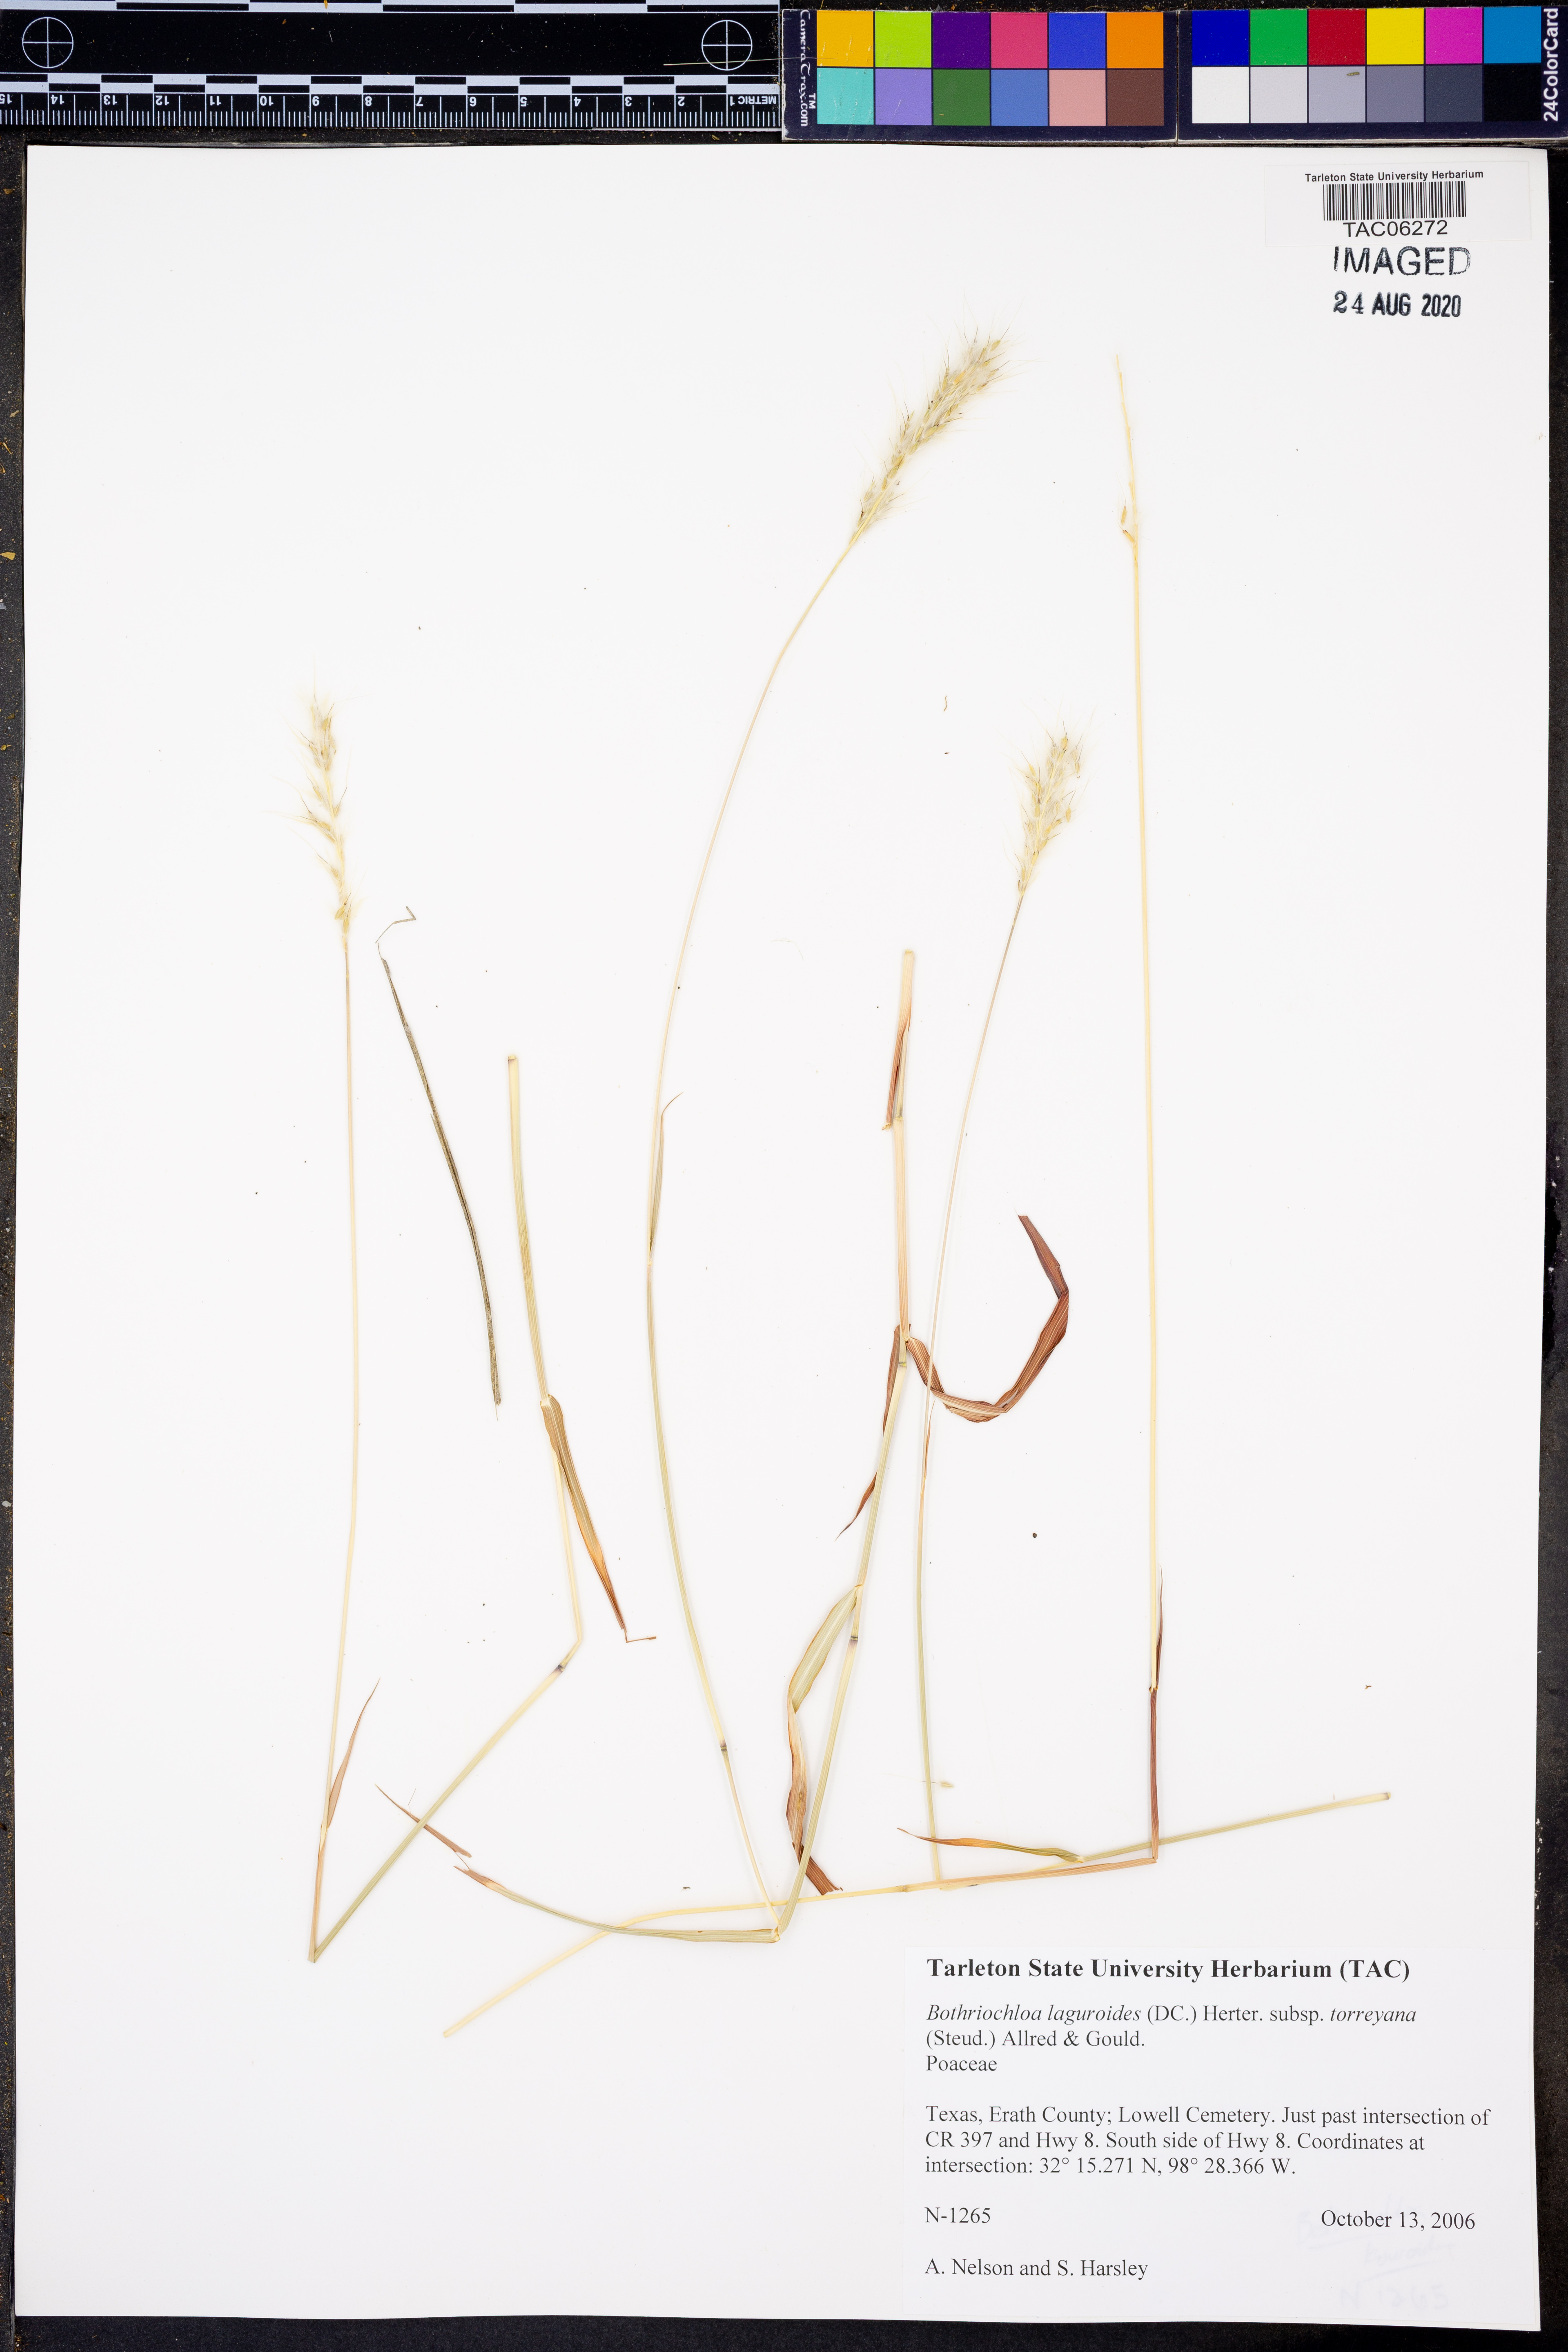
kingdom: Plantae
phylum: Tracheophyta
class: Liliopsida
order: Poales
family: Poaceae
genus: Bothriochloa
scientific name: Bothriochloa torreyana
